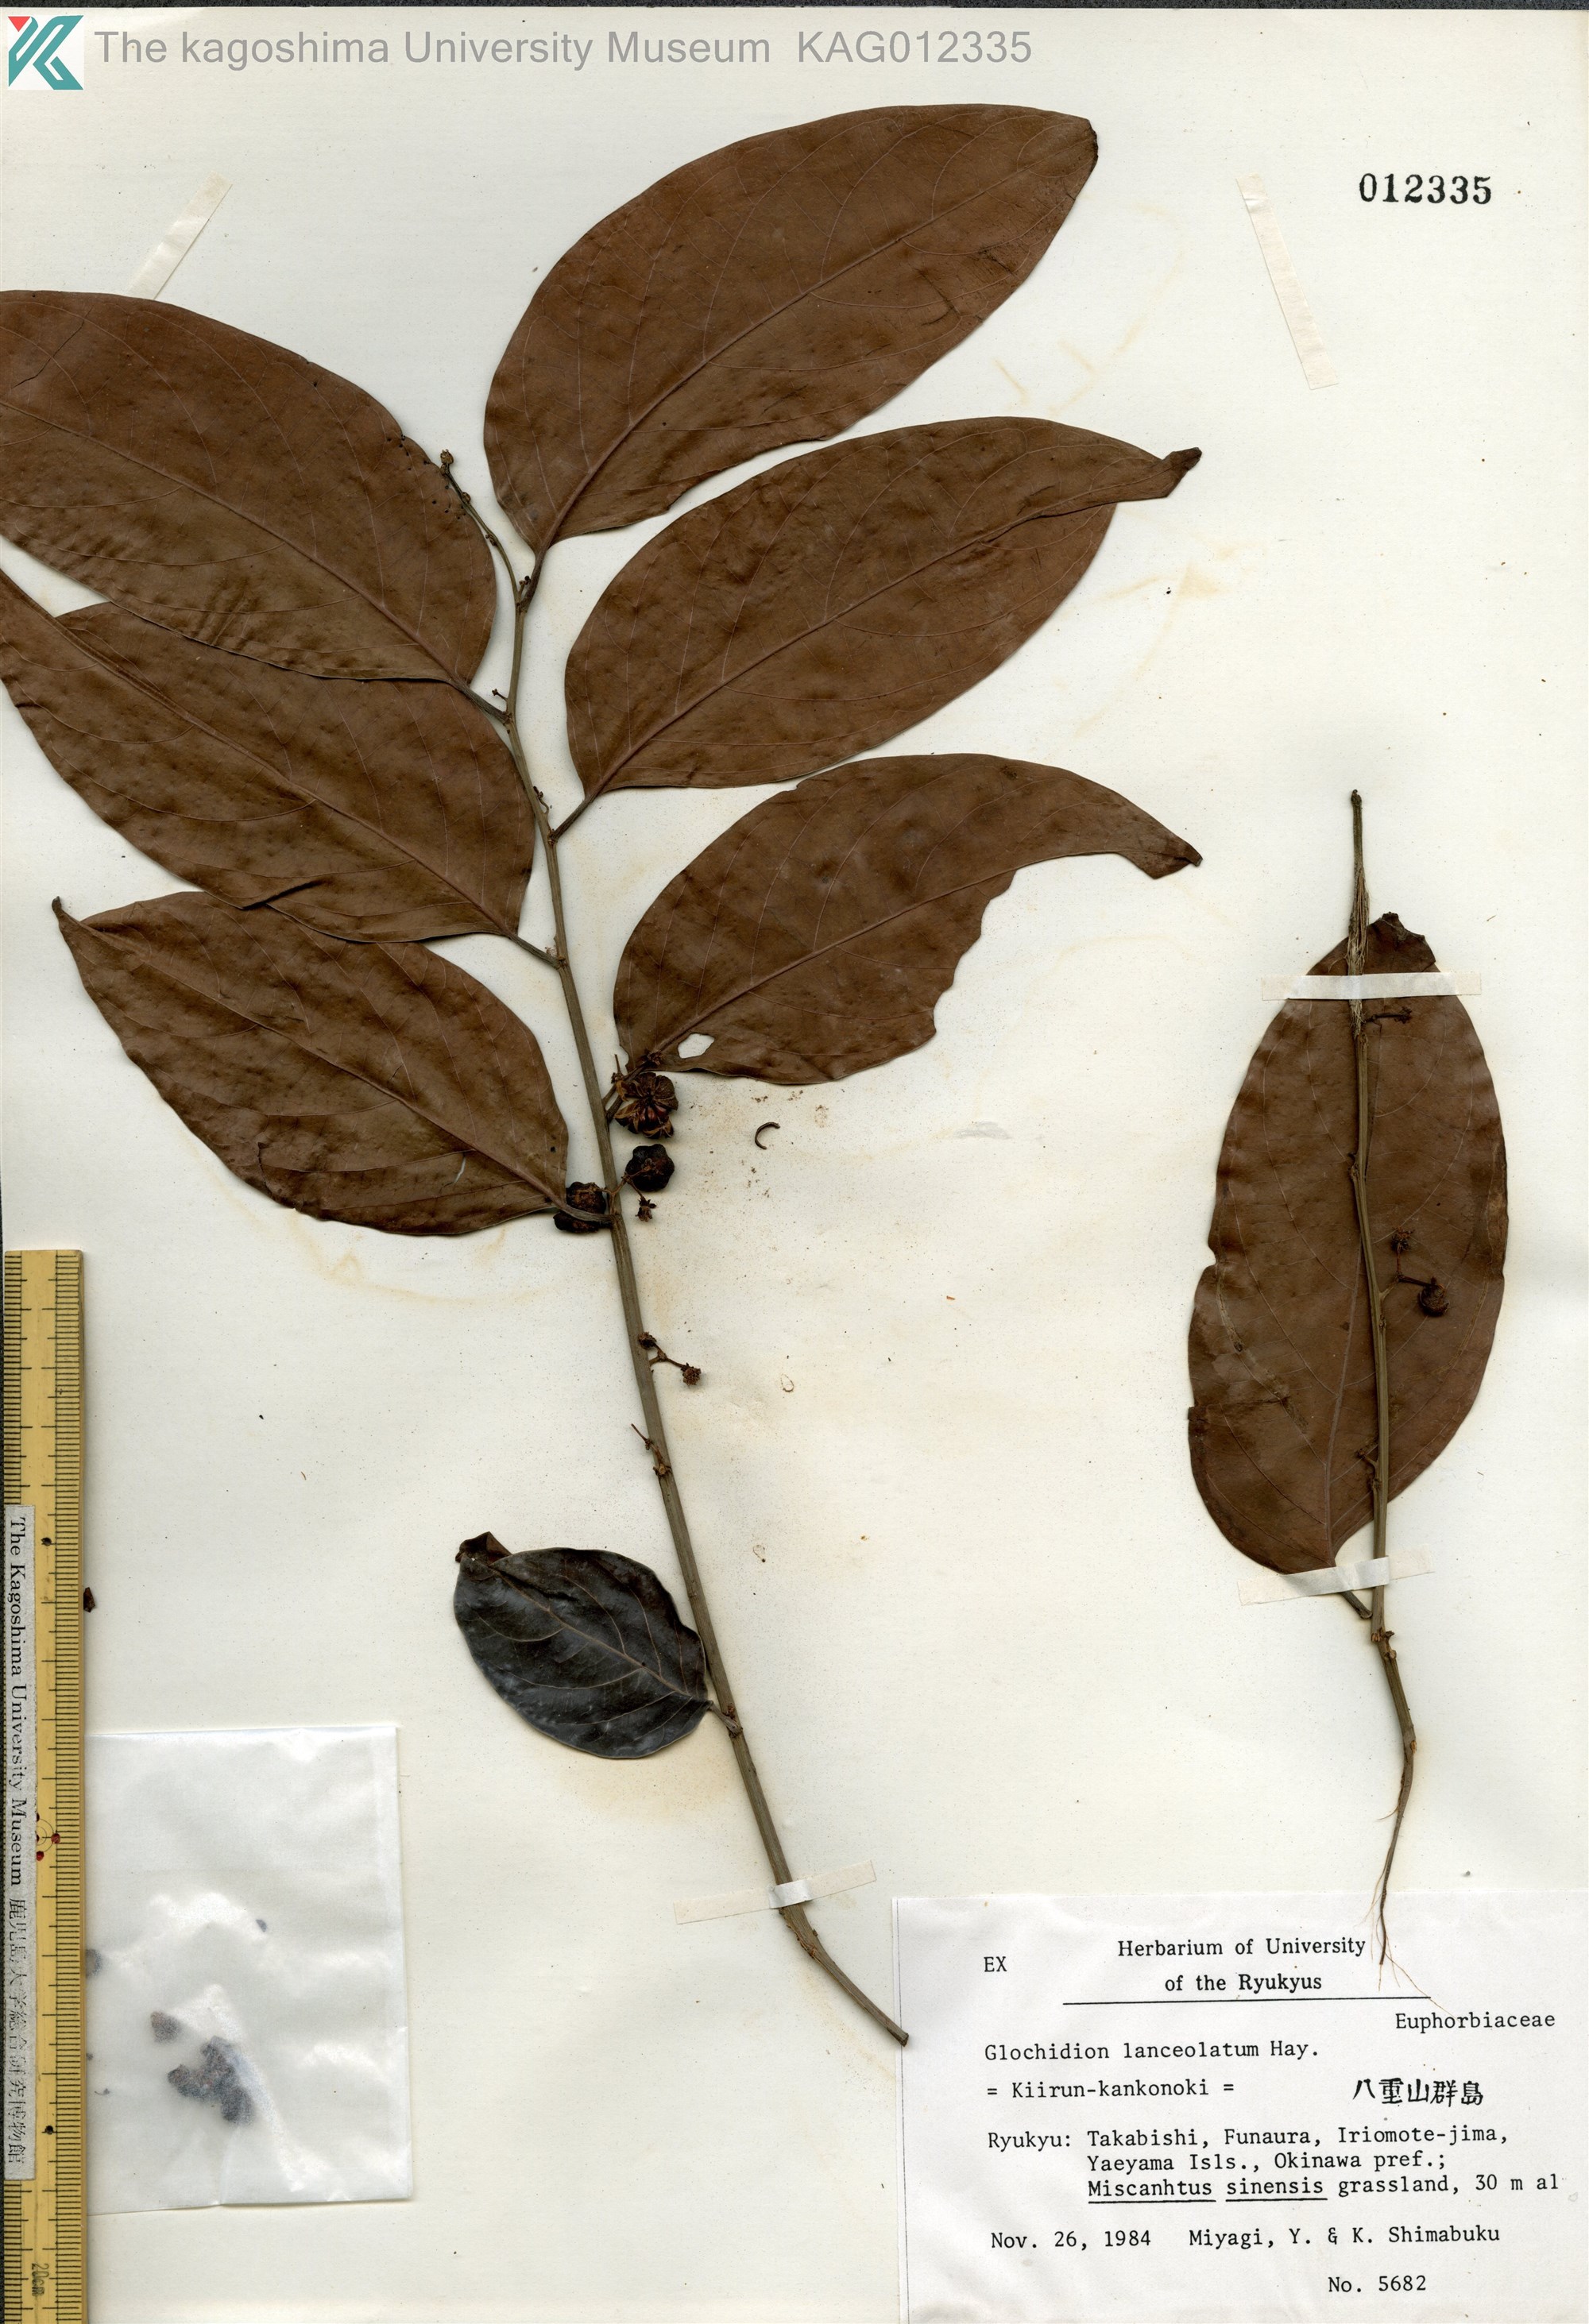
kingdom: Plantae
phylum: Tracheophyta
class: Magnoliopsida
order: Malpighiales
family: Phyllanthaceae
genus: Glochidion
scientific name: Glochidion lanceolatum
